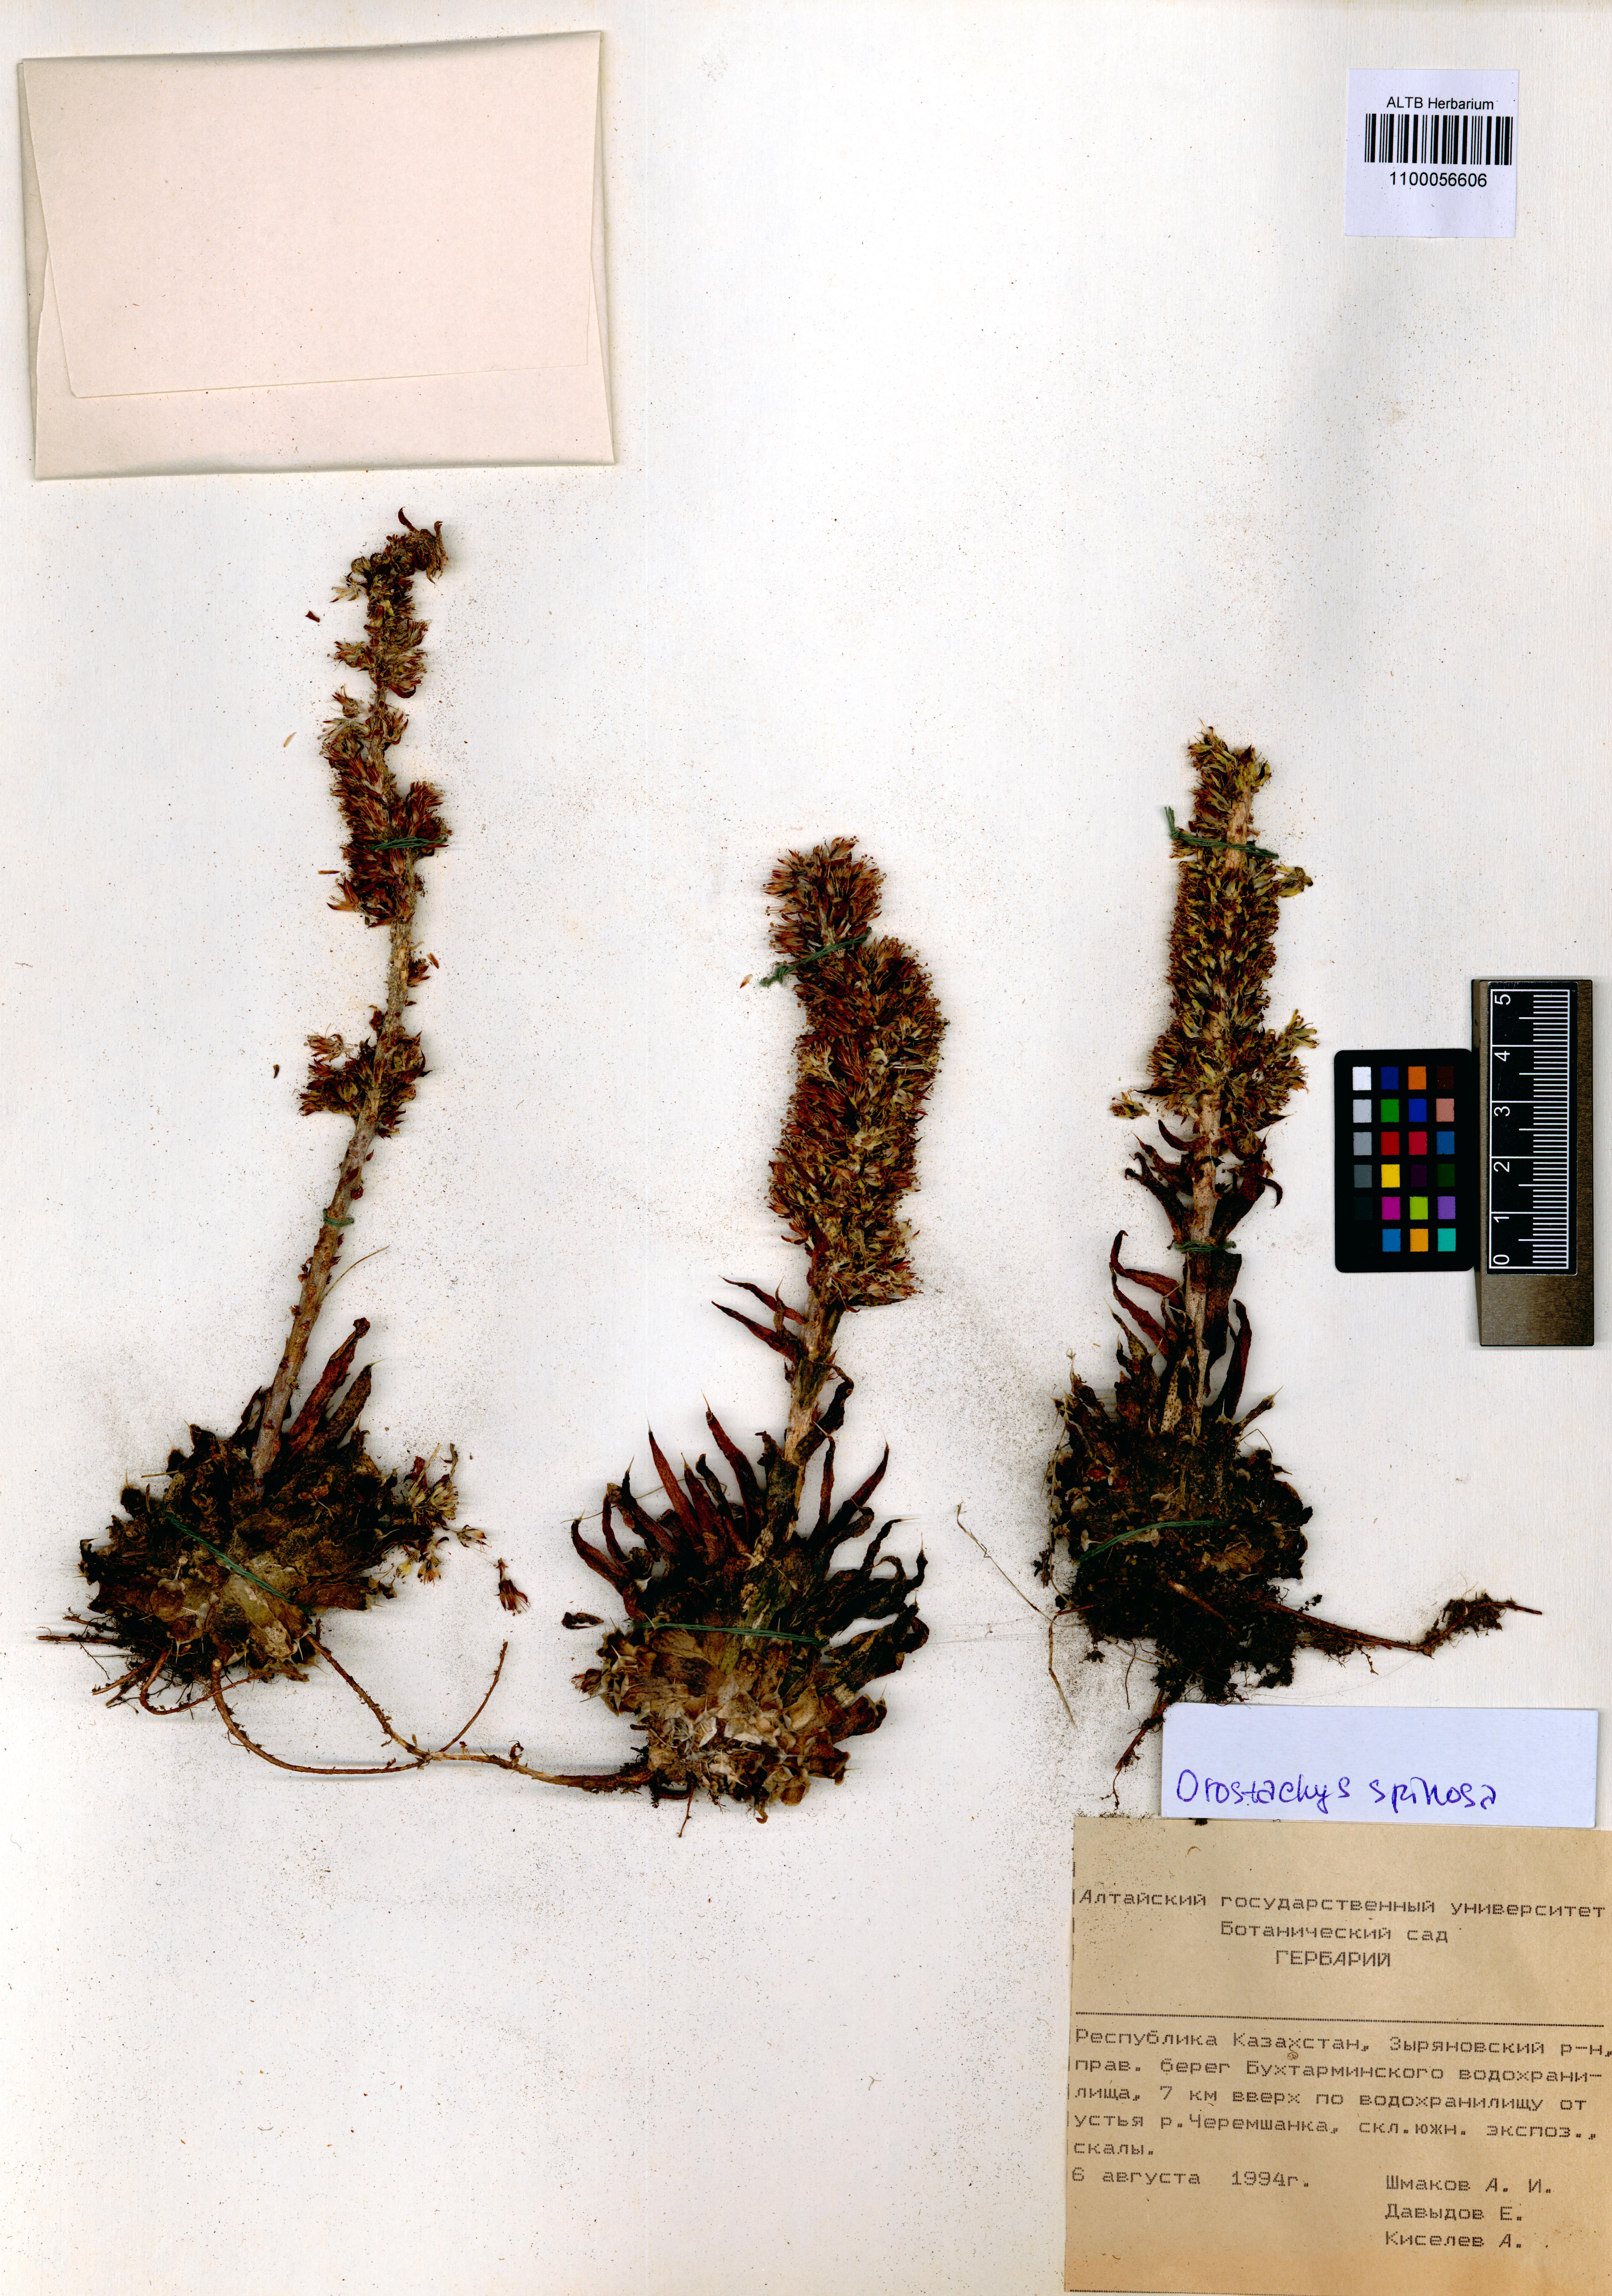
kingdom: Plantae
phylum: Tracheophyta
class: Magnoliopsida
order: Saxifragales
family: Crassulaceae
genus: Orostachys
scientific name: Orostachys spinosa
